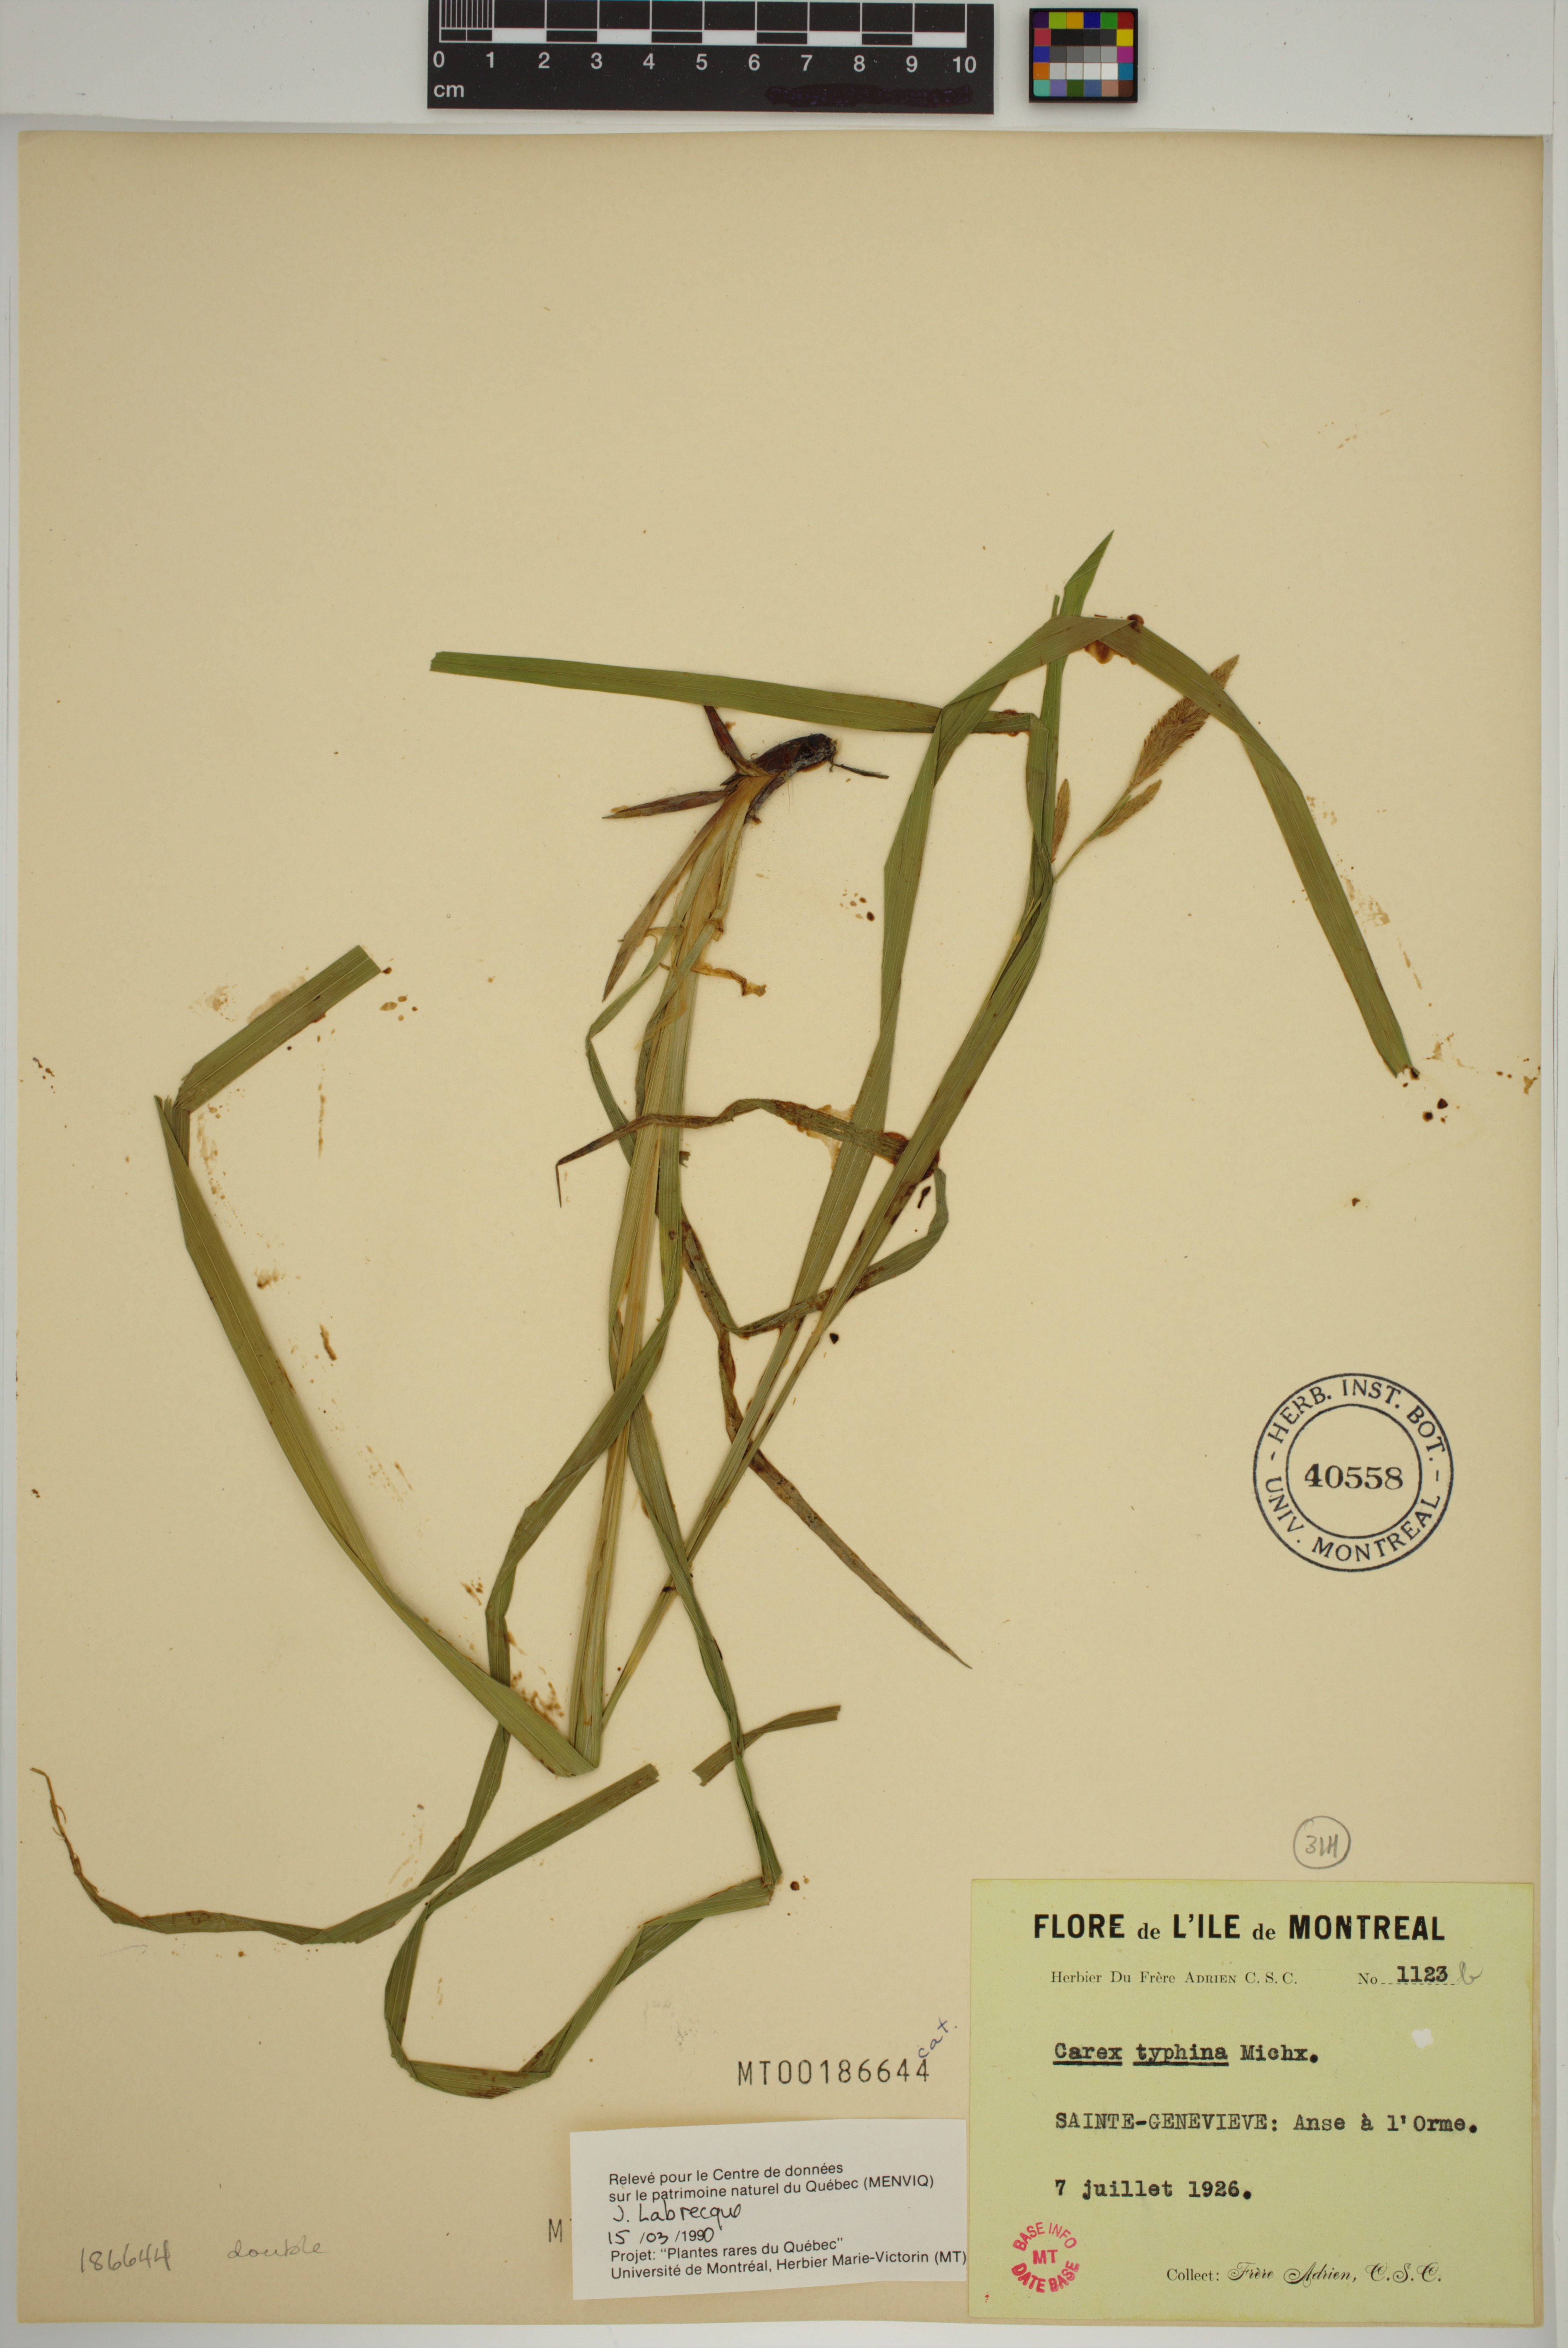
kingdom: Plantae
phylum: Tracheophyta
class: Liliopsida
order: Poales
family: Cyperaceae
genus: Carex
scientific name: Carex typhina
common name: Cattail sedge
